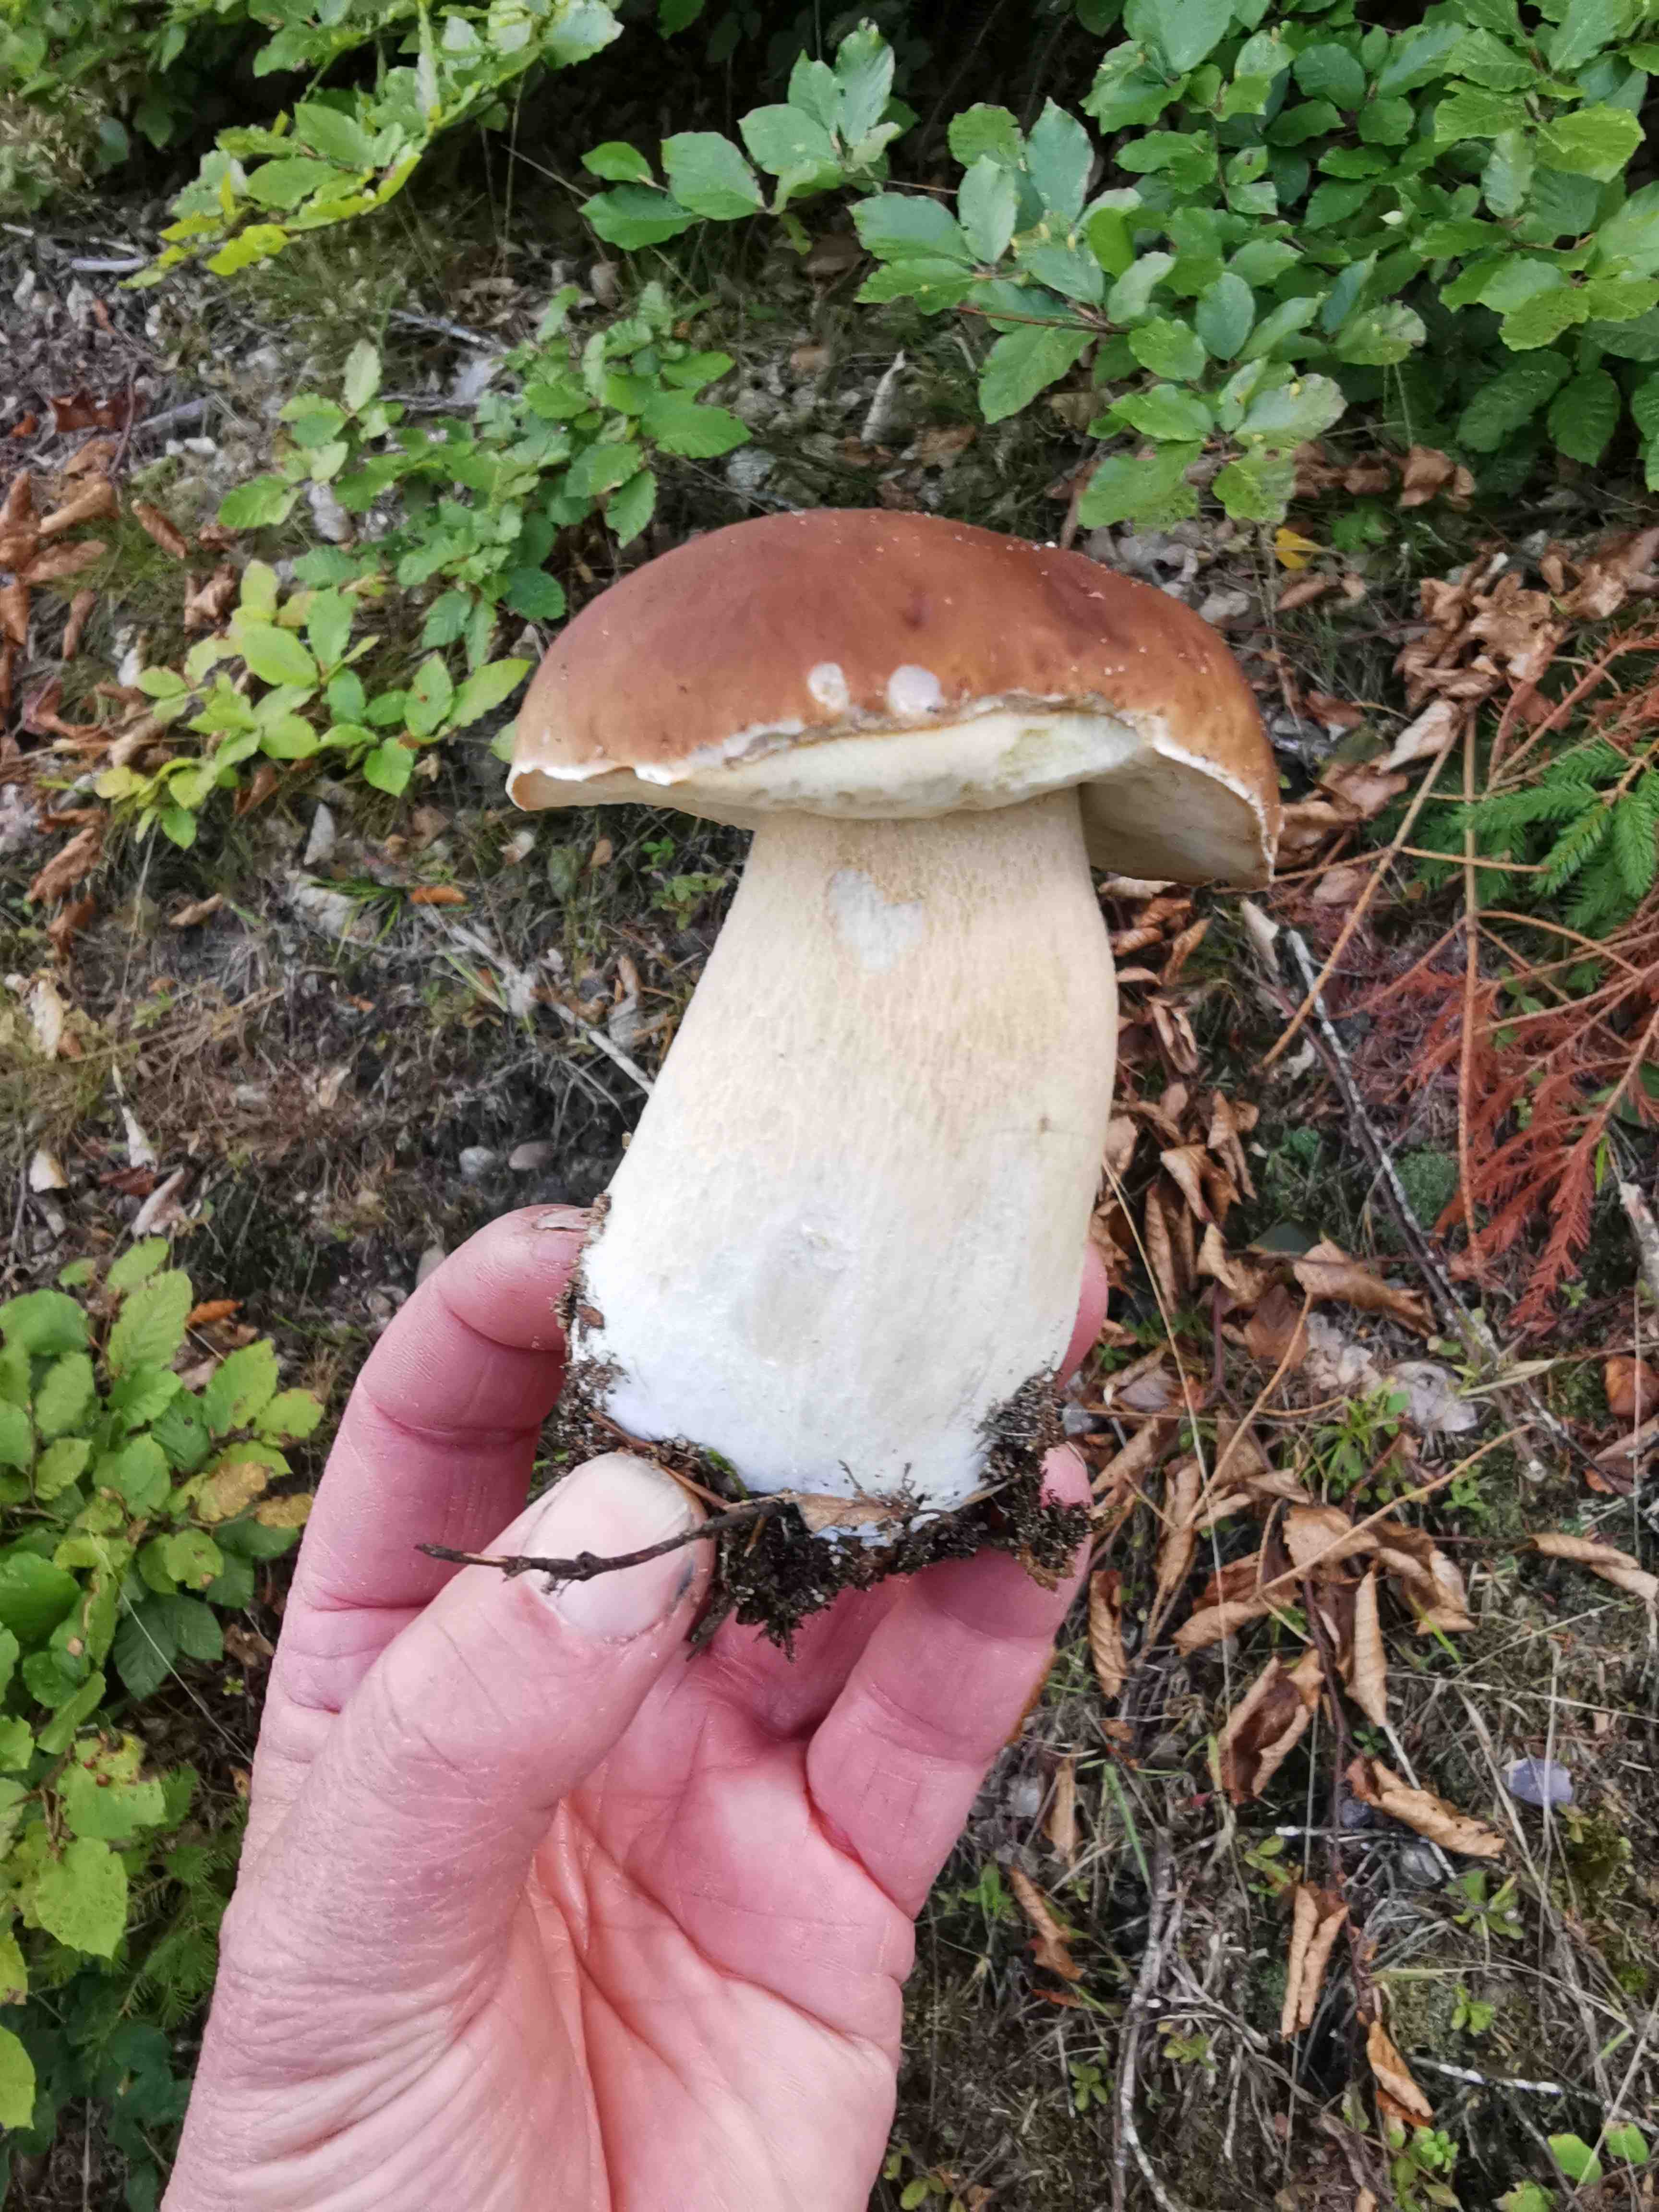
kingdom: Fungi
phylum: Basidiomycota
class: Agaricomycetes
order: Boletales
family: Boletaceae
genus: Boletus
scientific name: Boletus edulis
